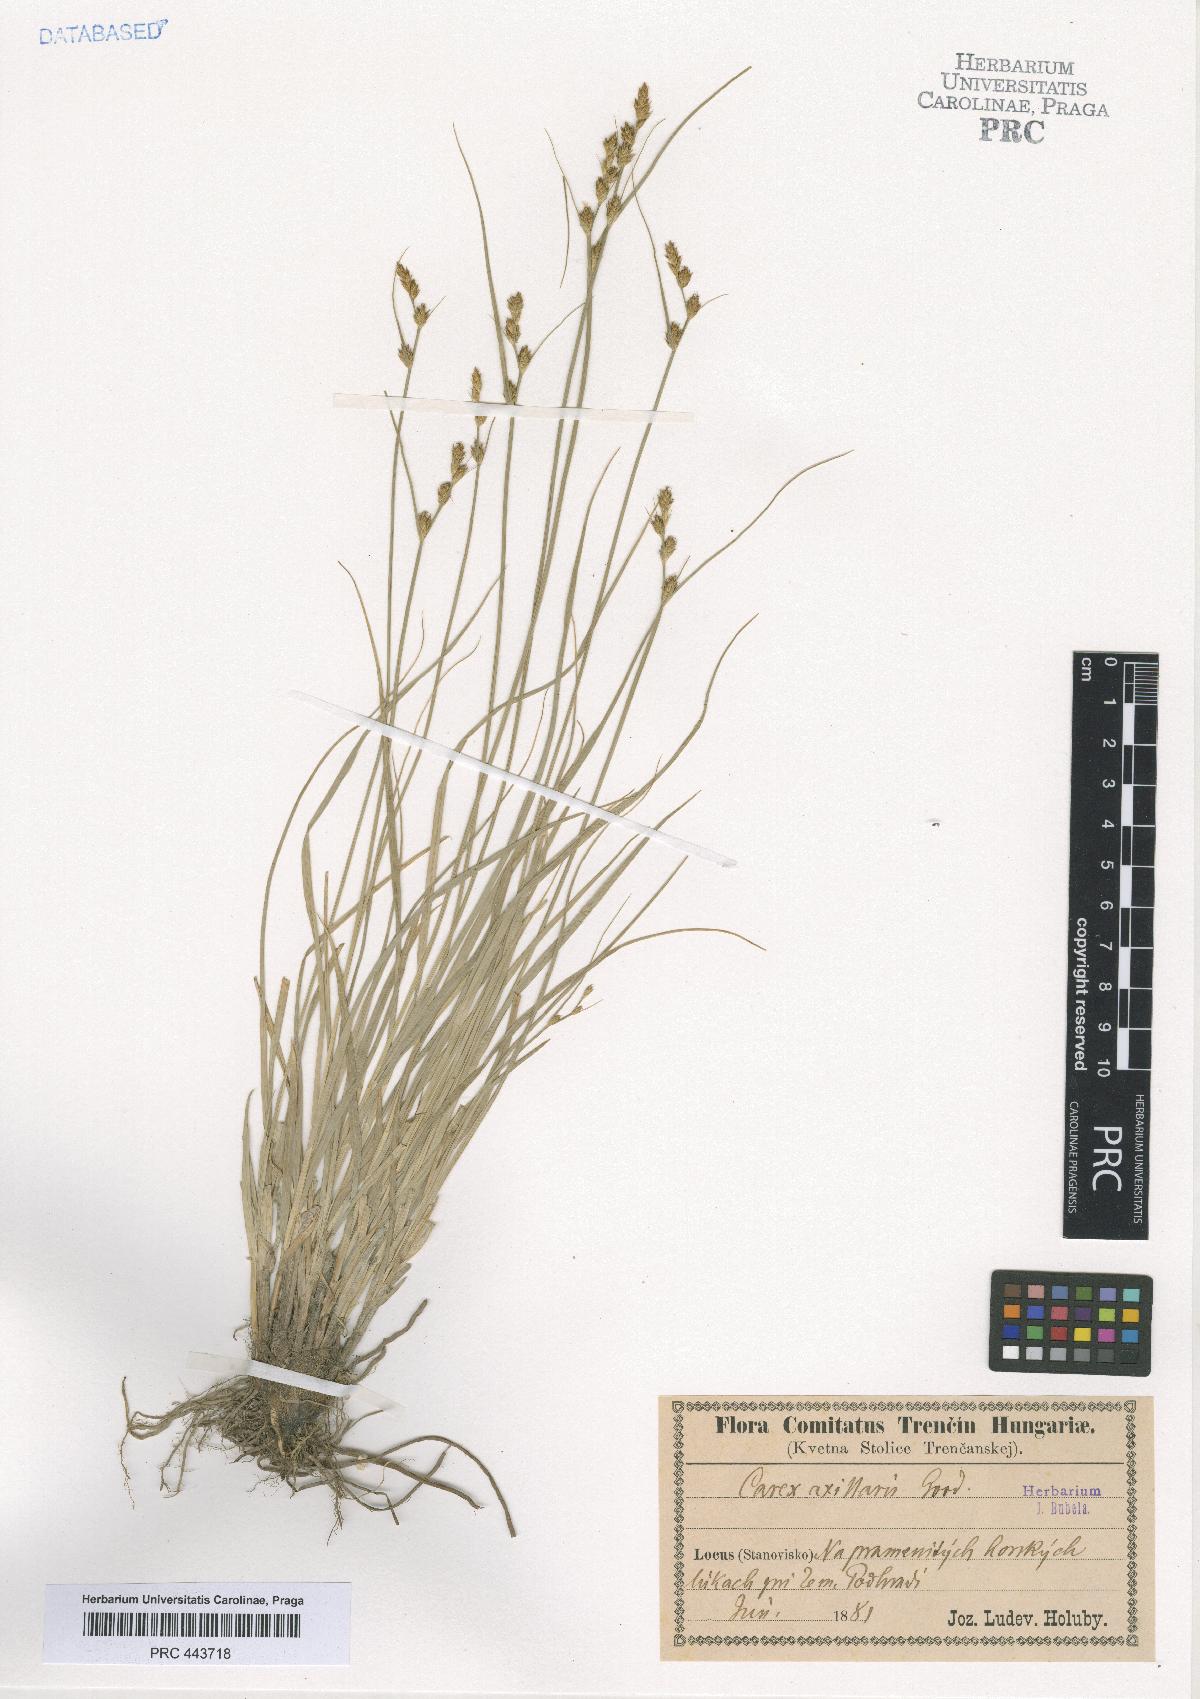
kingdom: Plantae
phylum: Tracheophyta
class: Liliopsida
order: Poales
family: Cyperaceae
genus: Carex
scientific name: Carex pseudoaxillaris
